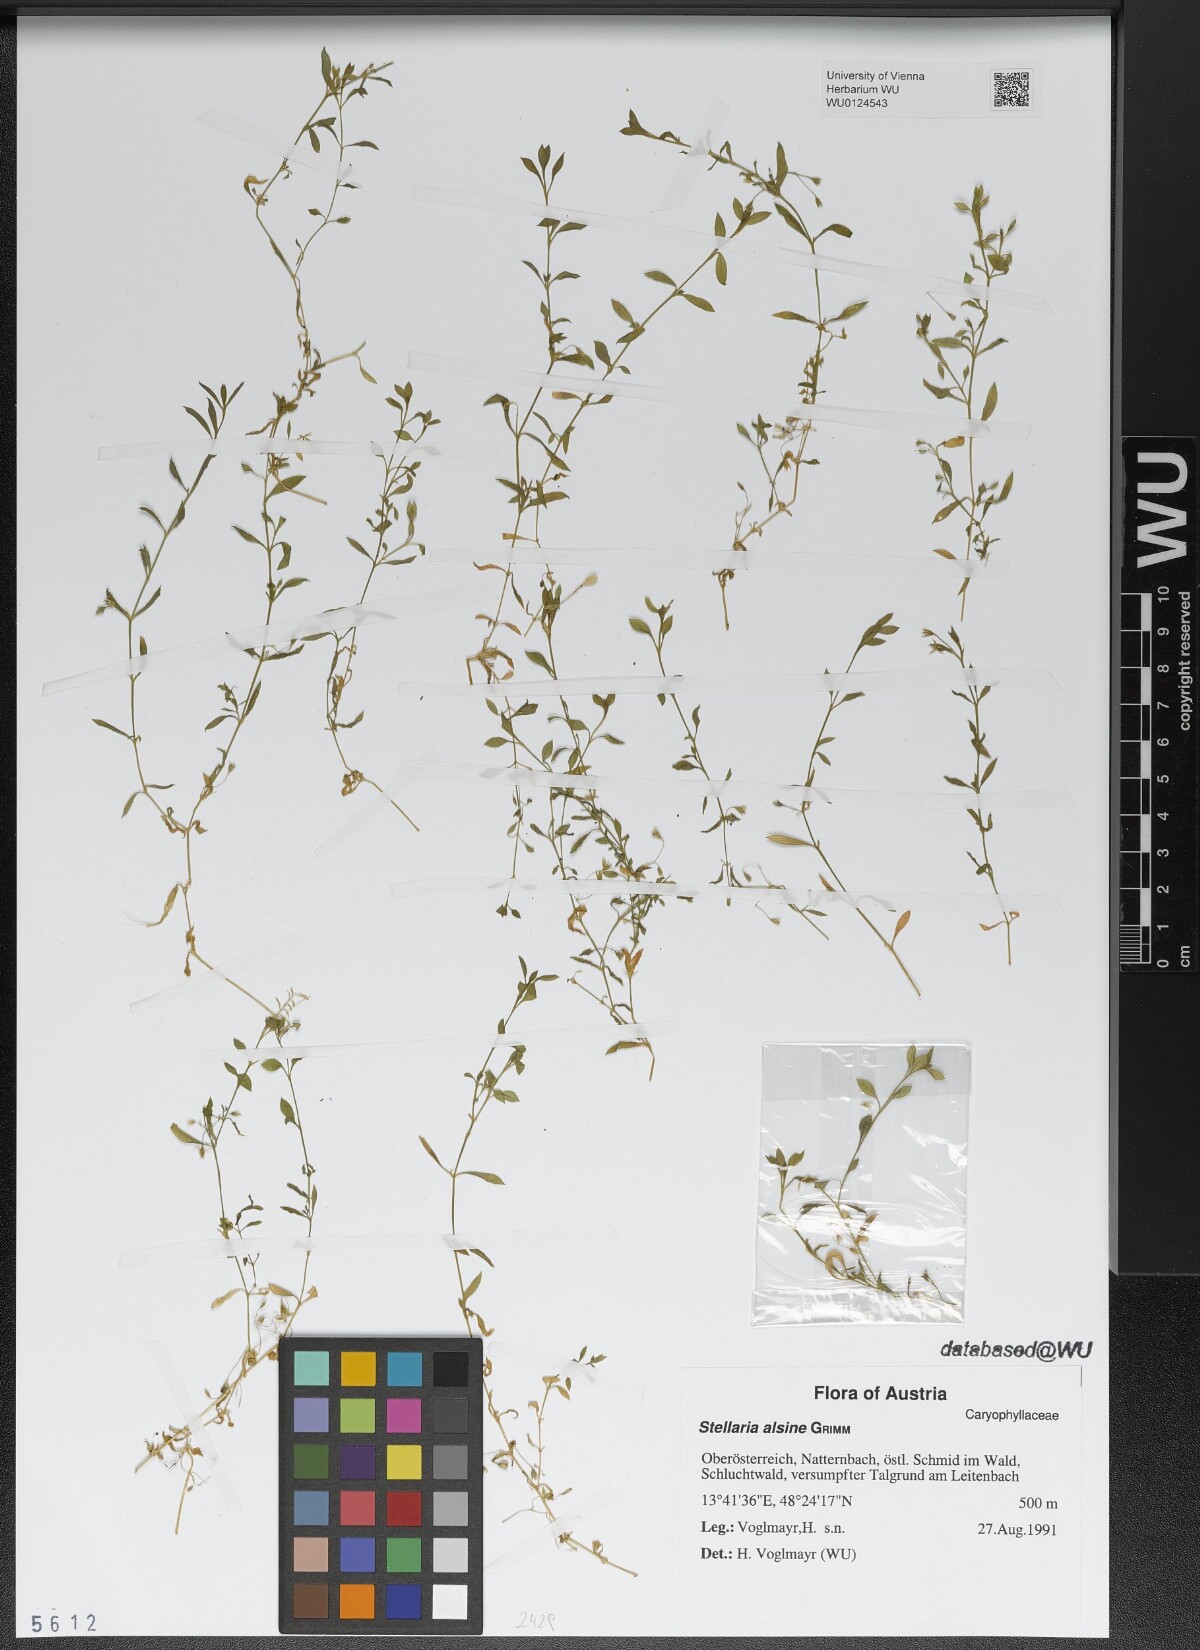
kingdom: Plantae
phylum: Tracheophyta
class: Magnoliopsida
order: Caryophyllales
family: Caryophyllaceae
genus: Stellaria
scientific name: Stellaria alsine
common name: Bog stitchwort
